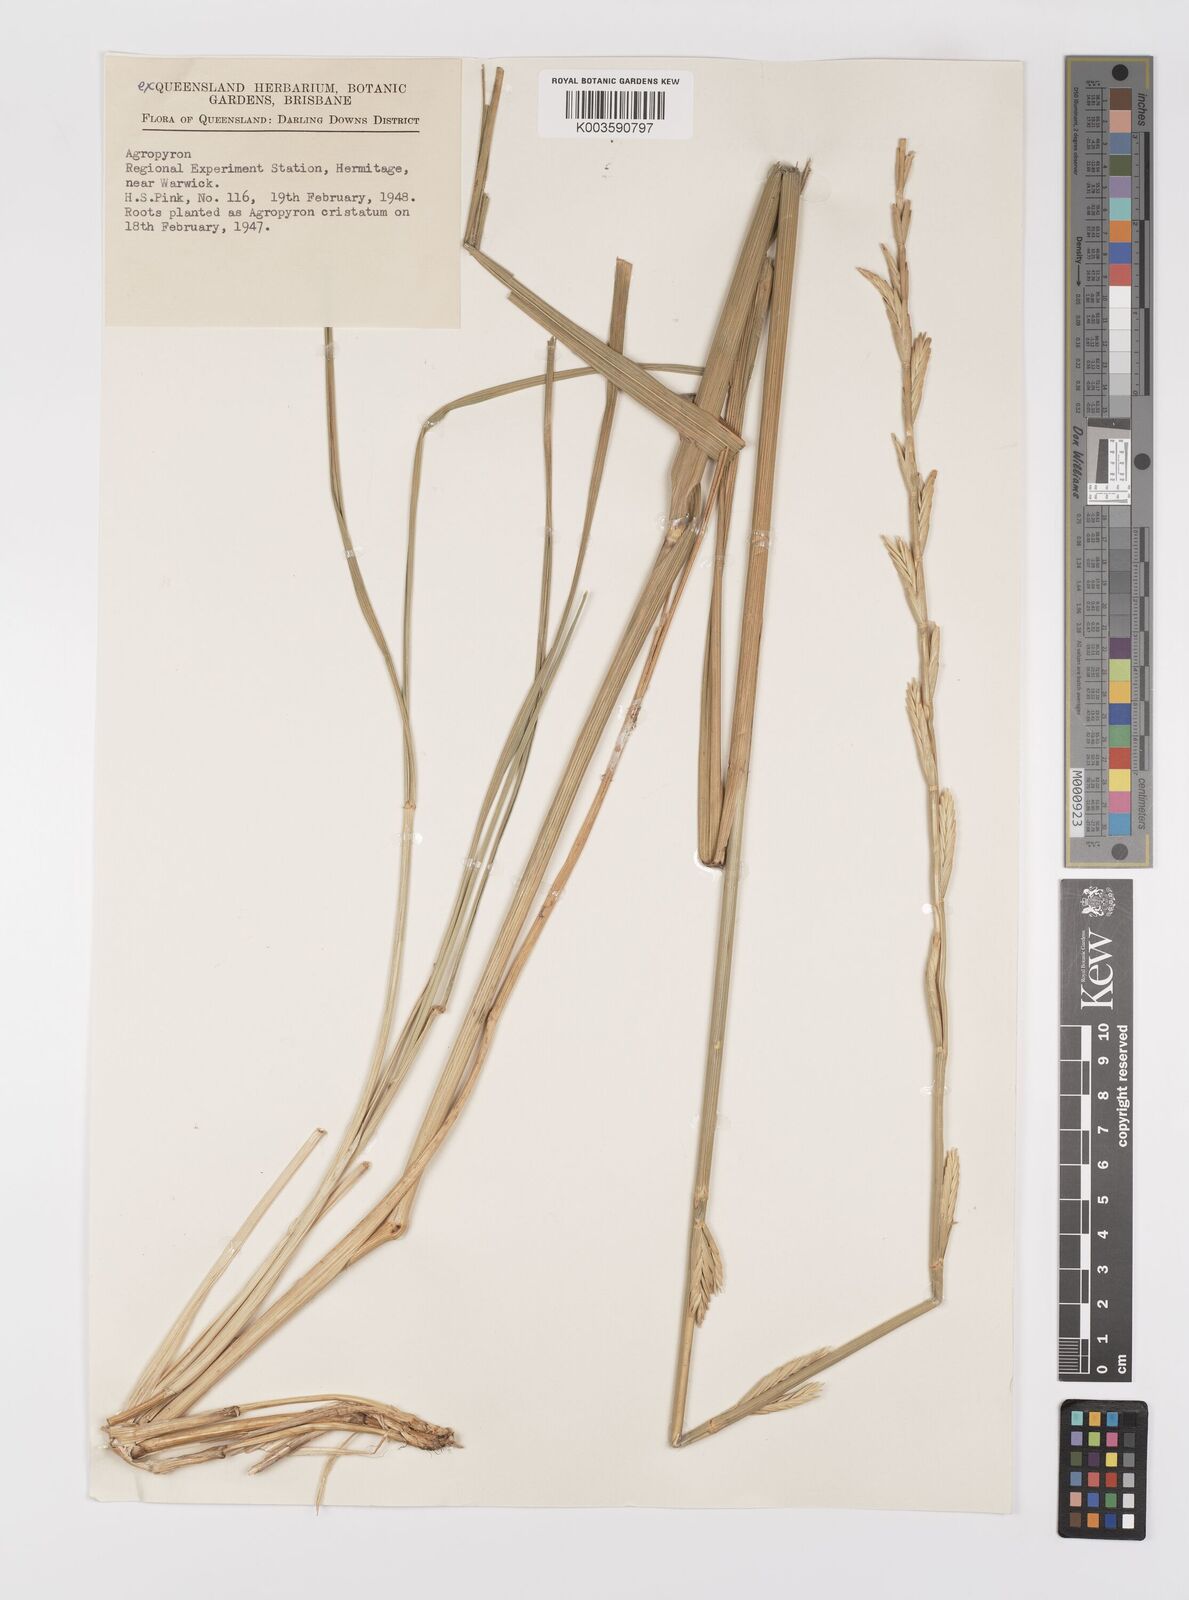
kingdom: Plantae
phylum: Tracheophyta
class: Liliopsida
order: Poales
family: Poaceae
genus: Elymus
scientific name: Elymus
